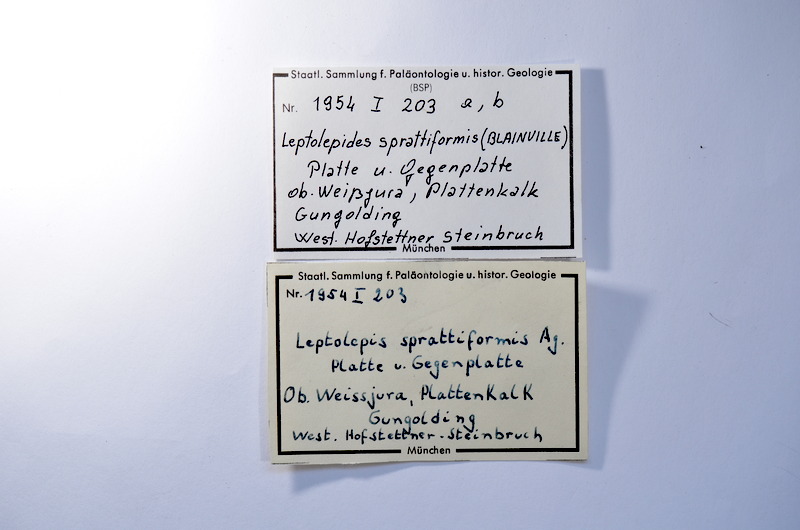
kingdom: Animalia
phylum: Chordata
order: Salmoniformes
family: Orthogonikleithridae
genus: Leptolepides
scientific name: Leptolepides sprattiformis
